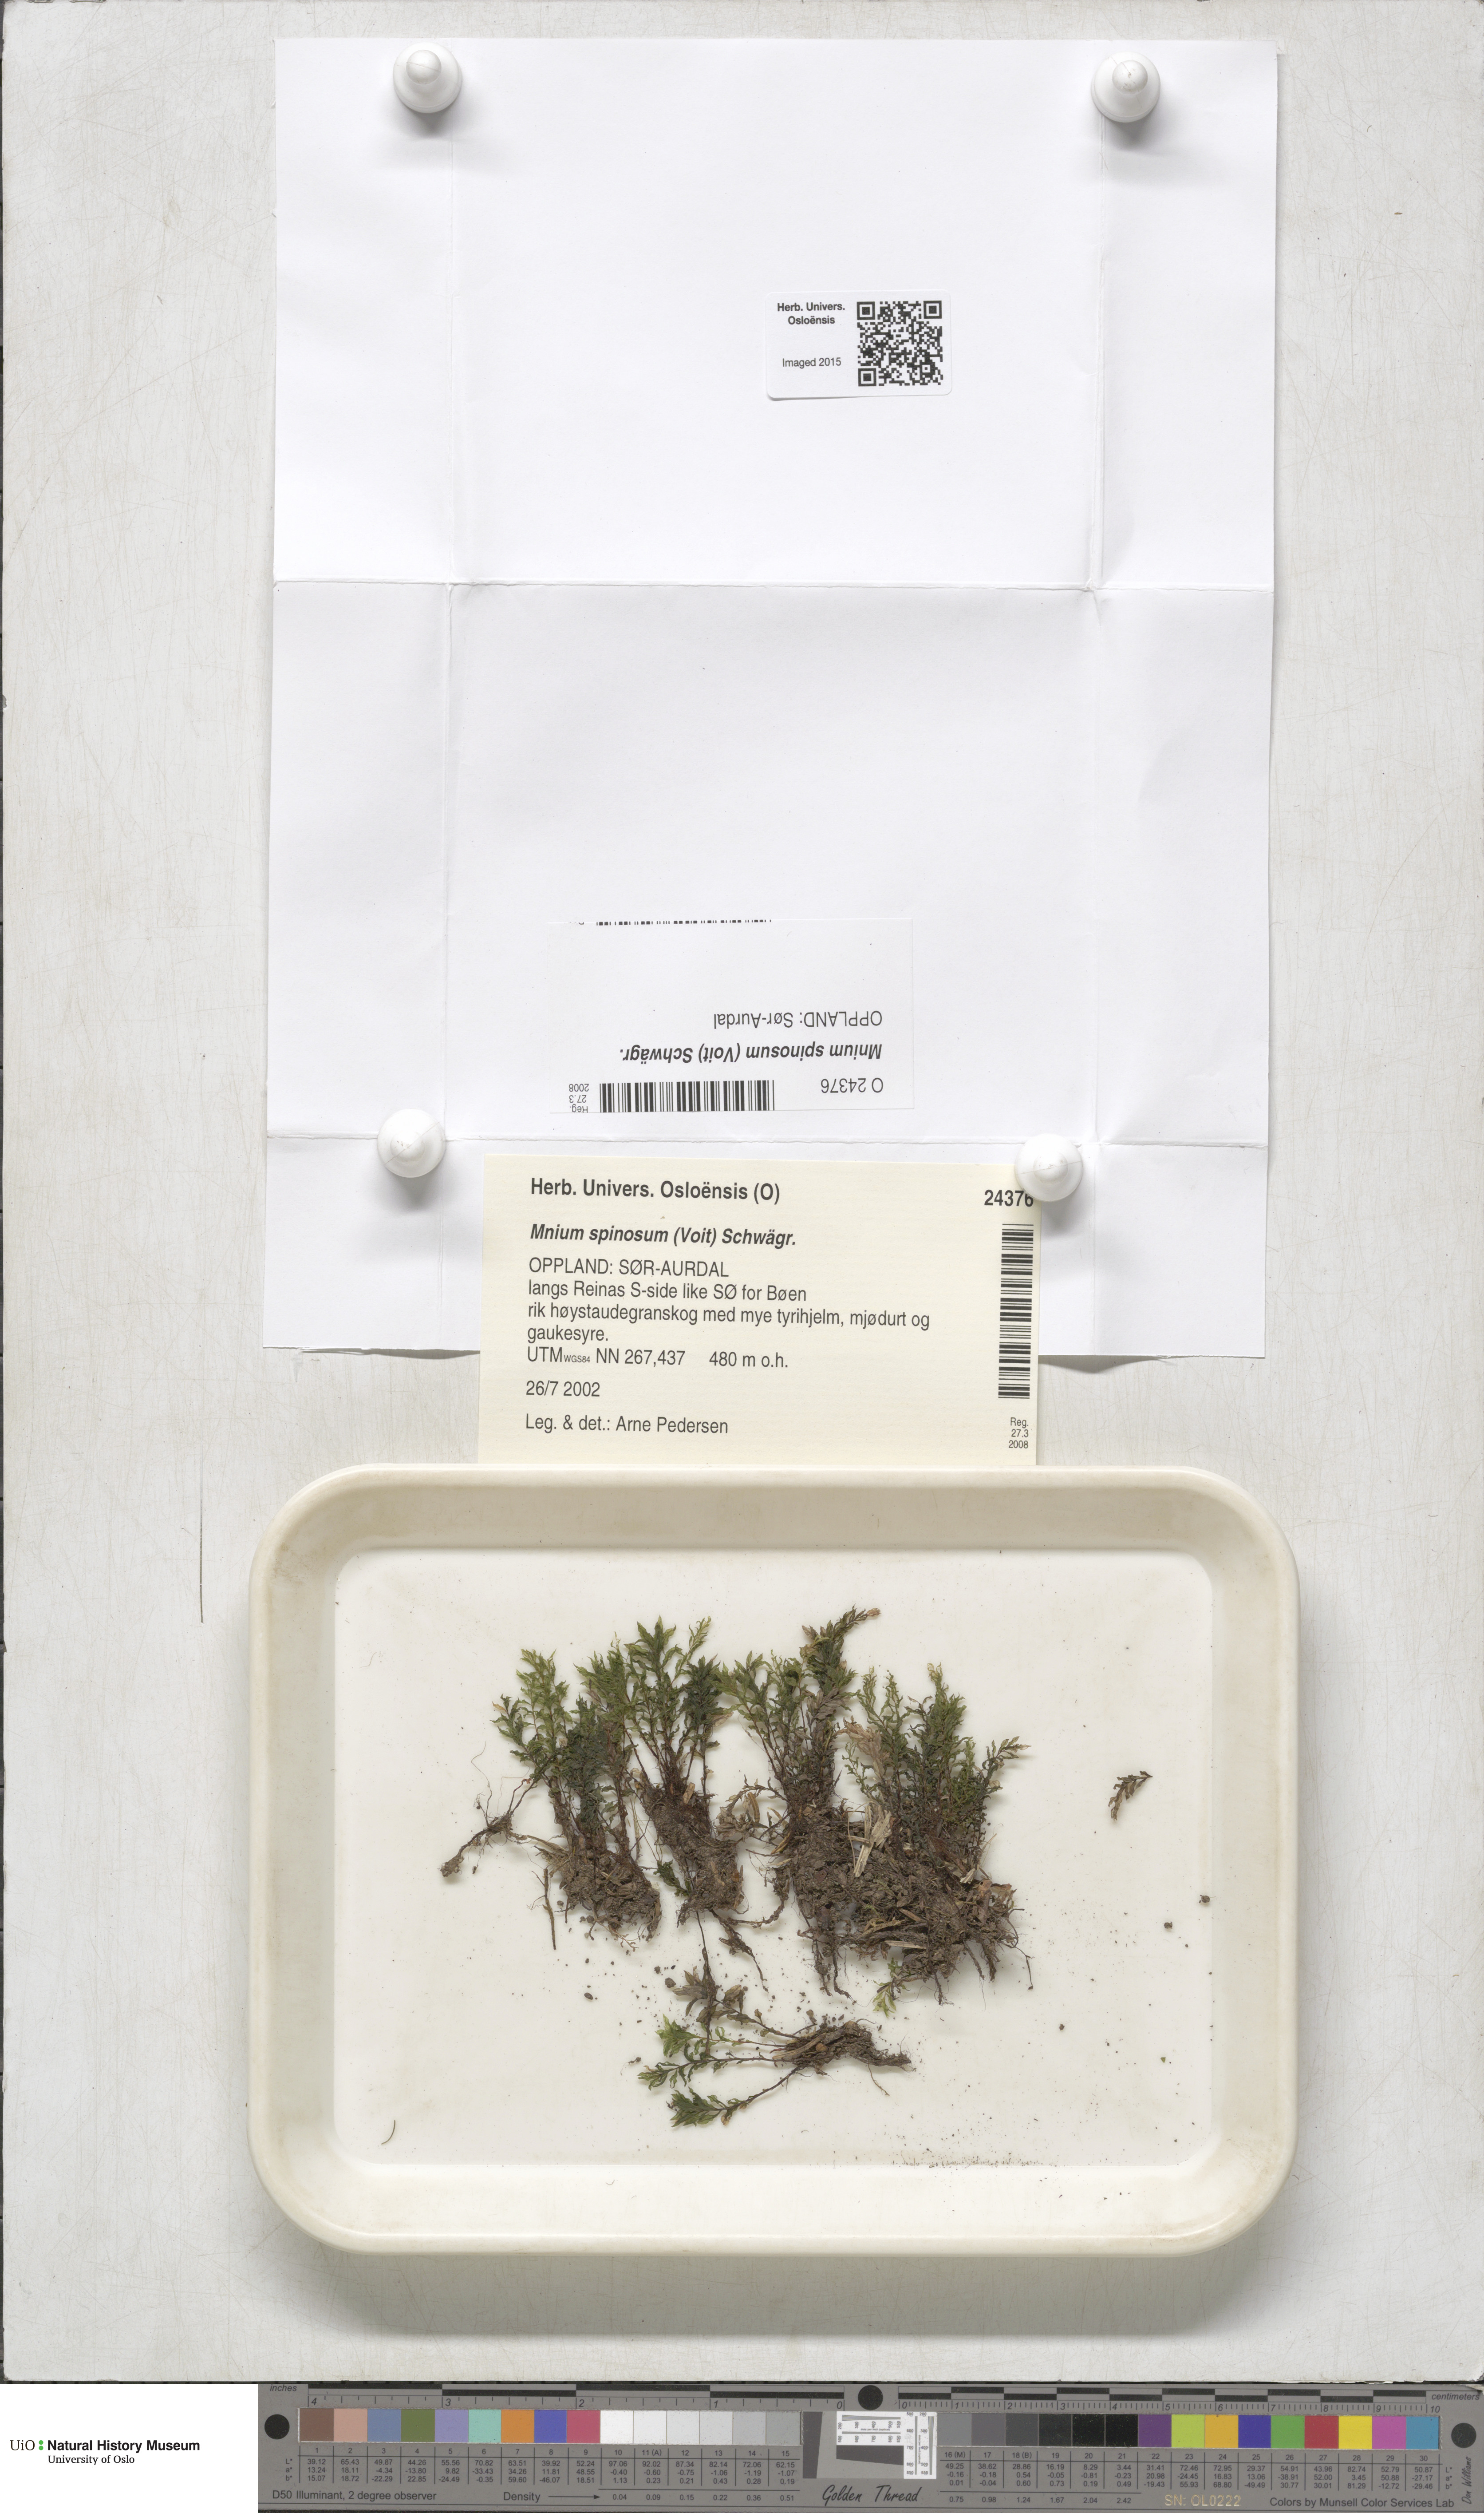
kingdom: Plantae
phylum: Bryophyta
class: Bryopsida
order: Bryales
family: Mniaceae
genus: Mnium
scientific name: Mnium spinosum
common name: Spinose thyme-moss
